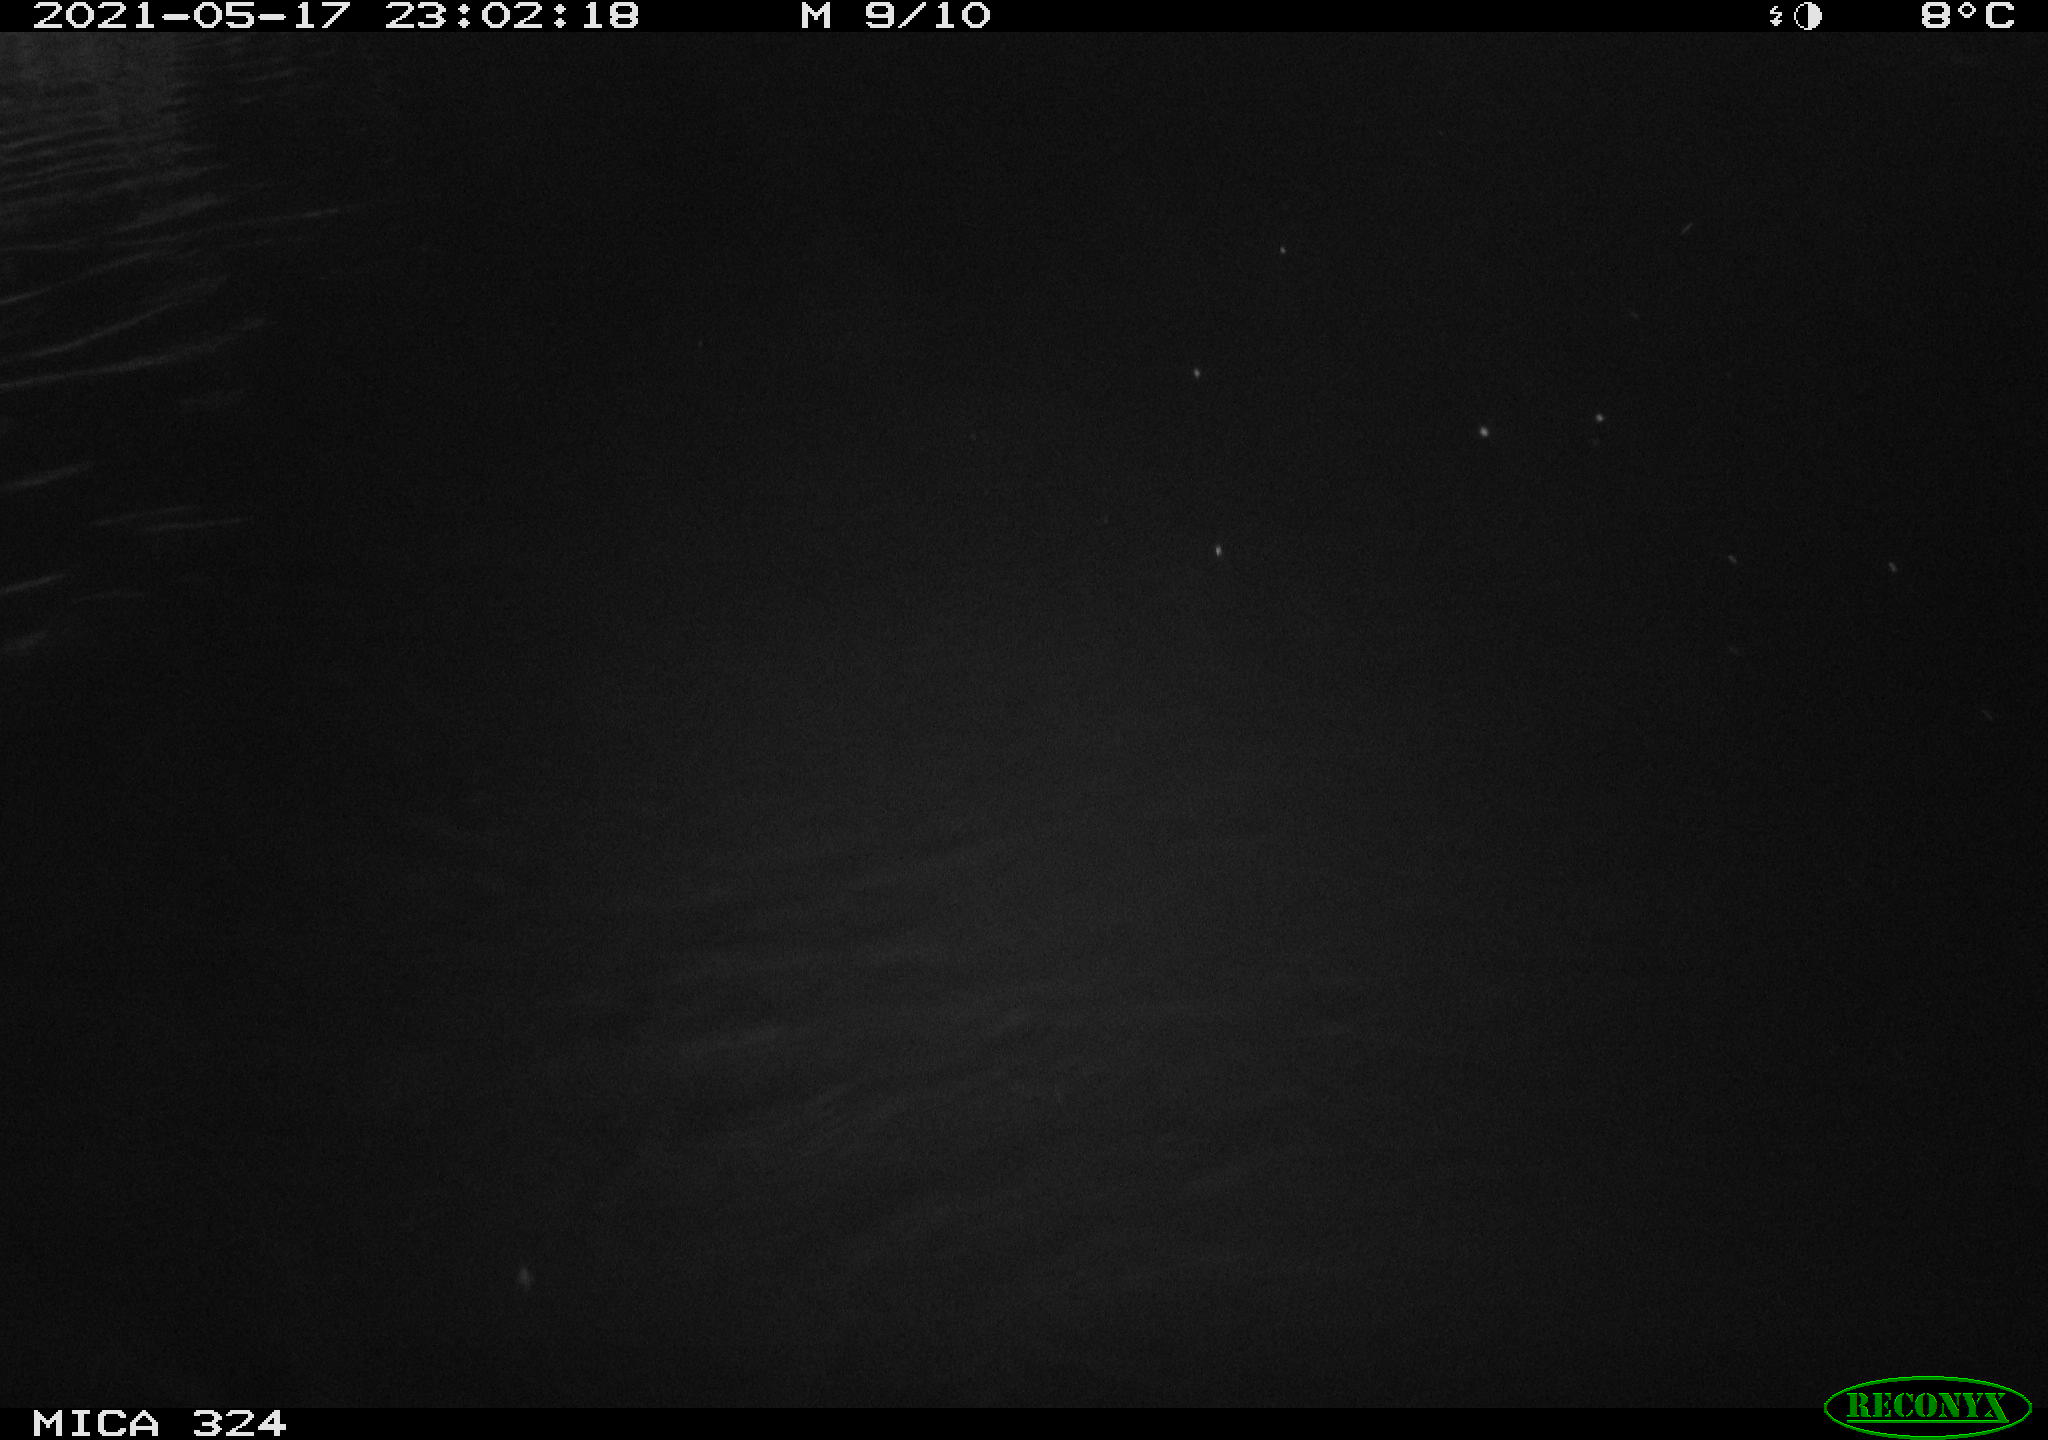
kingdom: Animalia
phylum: Chordata
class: Aves
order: Anseriformes
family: Anatidae
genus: Anas
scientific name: Anas platyrhynchos
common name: Mallard
